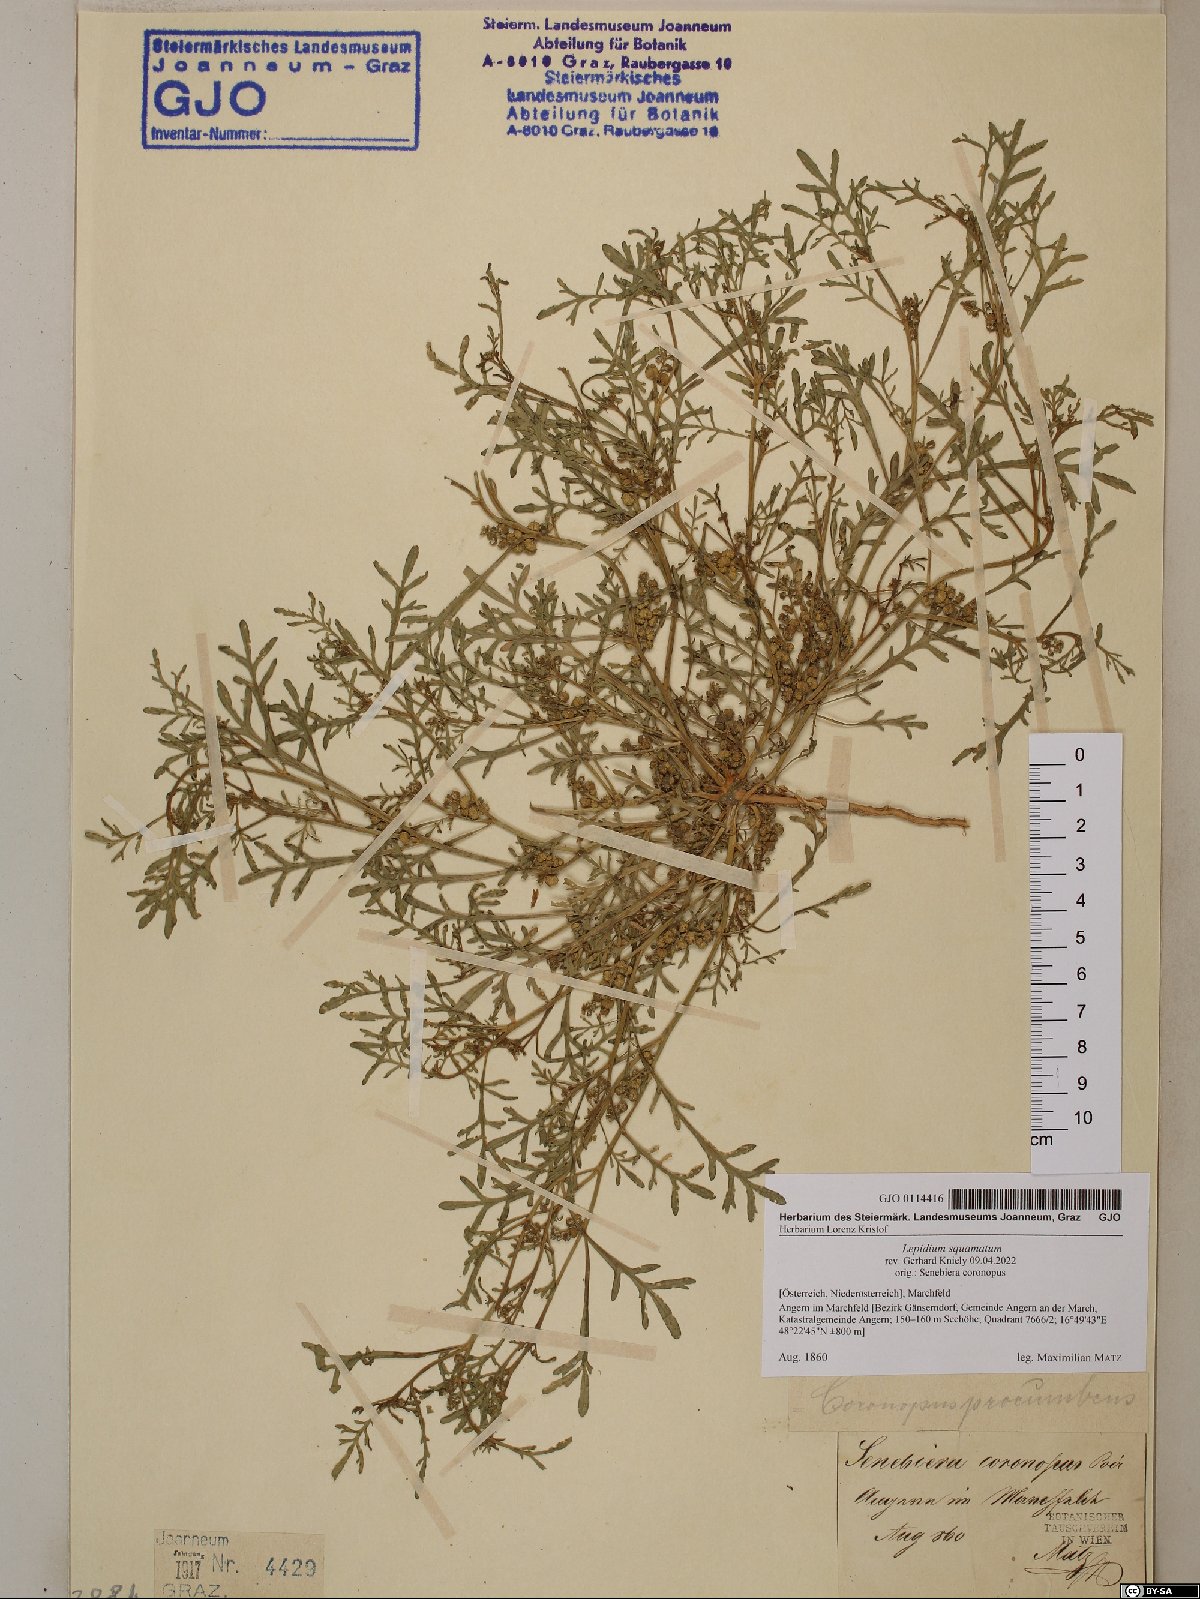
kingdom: Plantae
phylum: Tracheophyta
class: Magnoliopsida
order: Brassicales
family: Brassicaceae
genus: Lepidium
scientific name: Lepidium coronopus
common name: Greater swinecress
